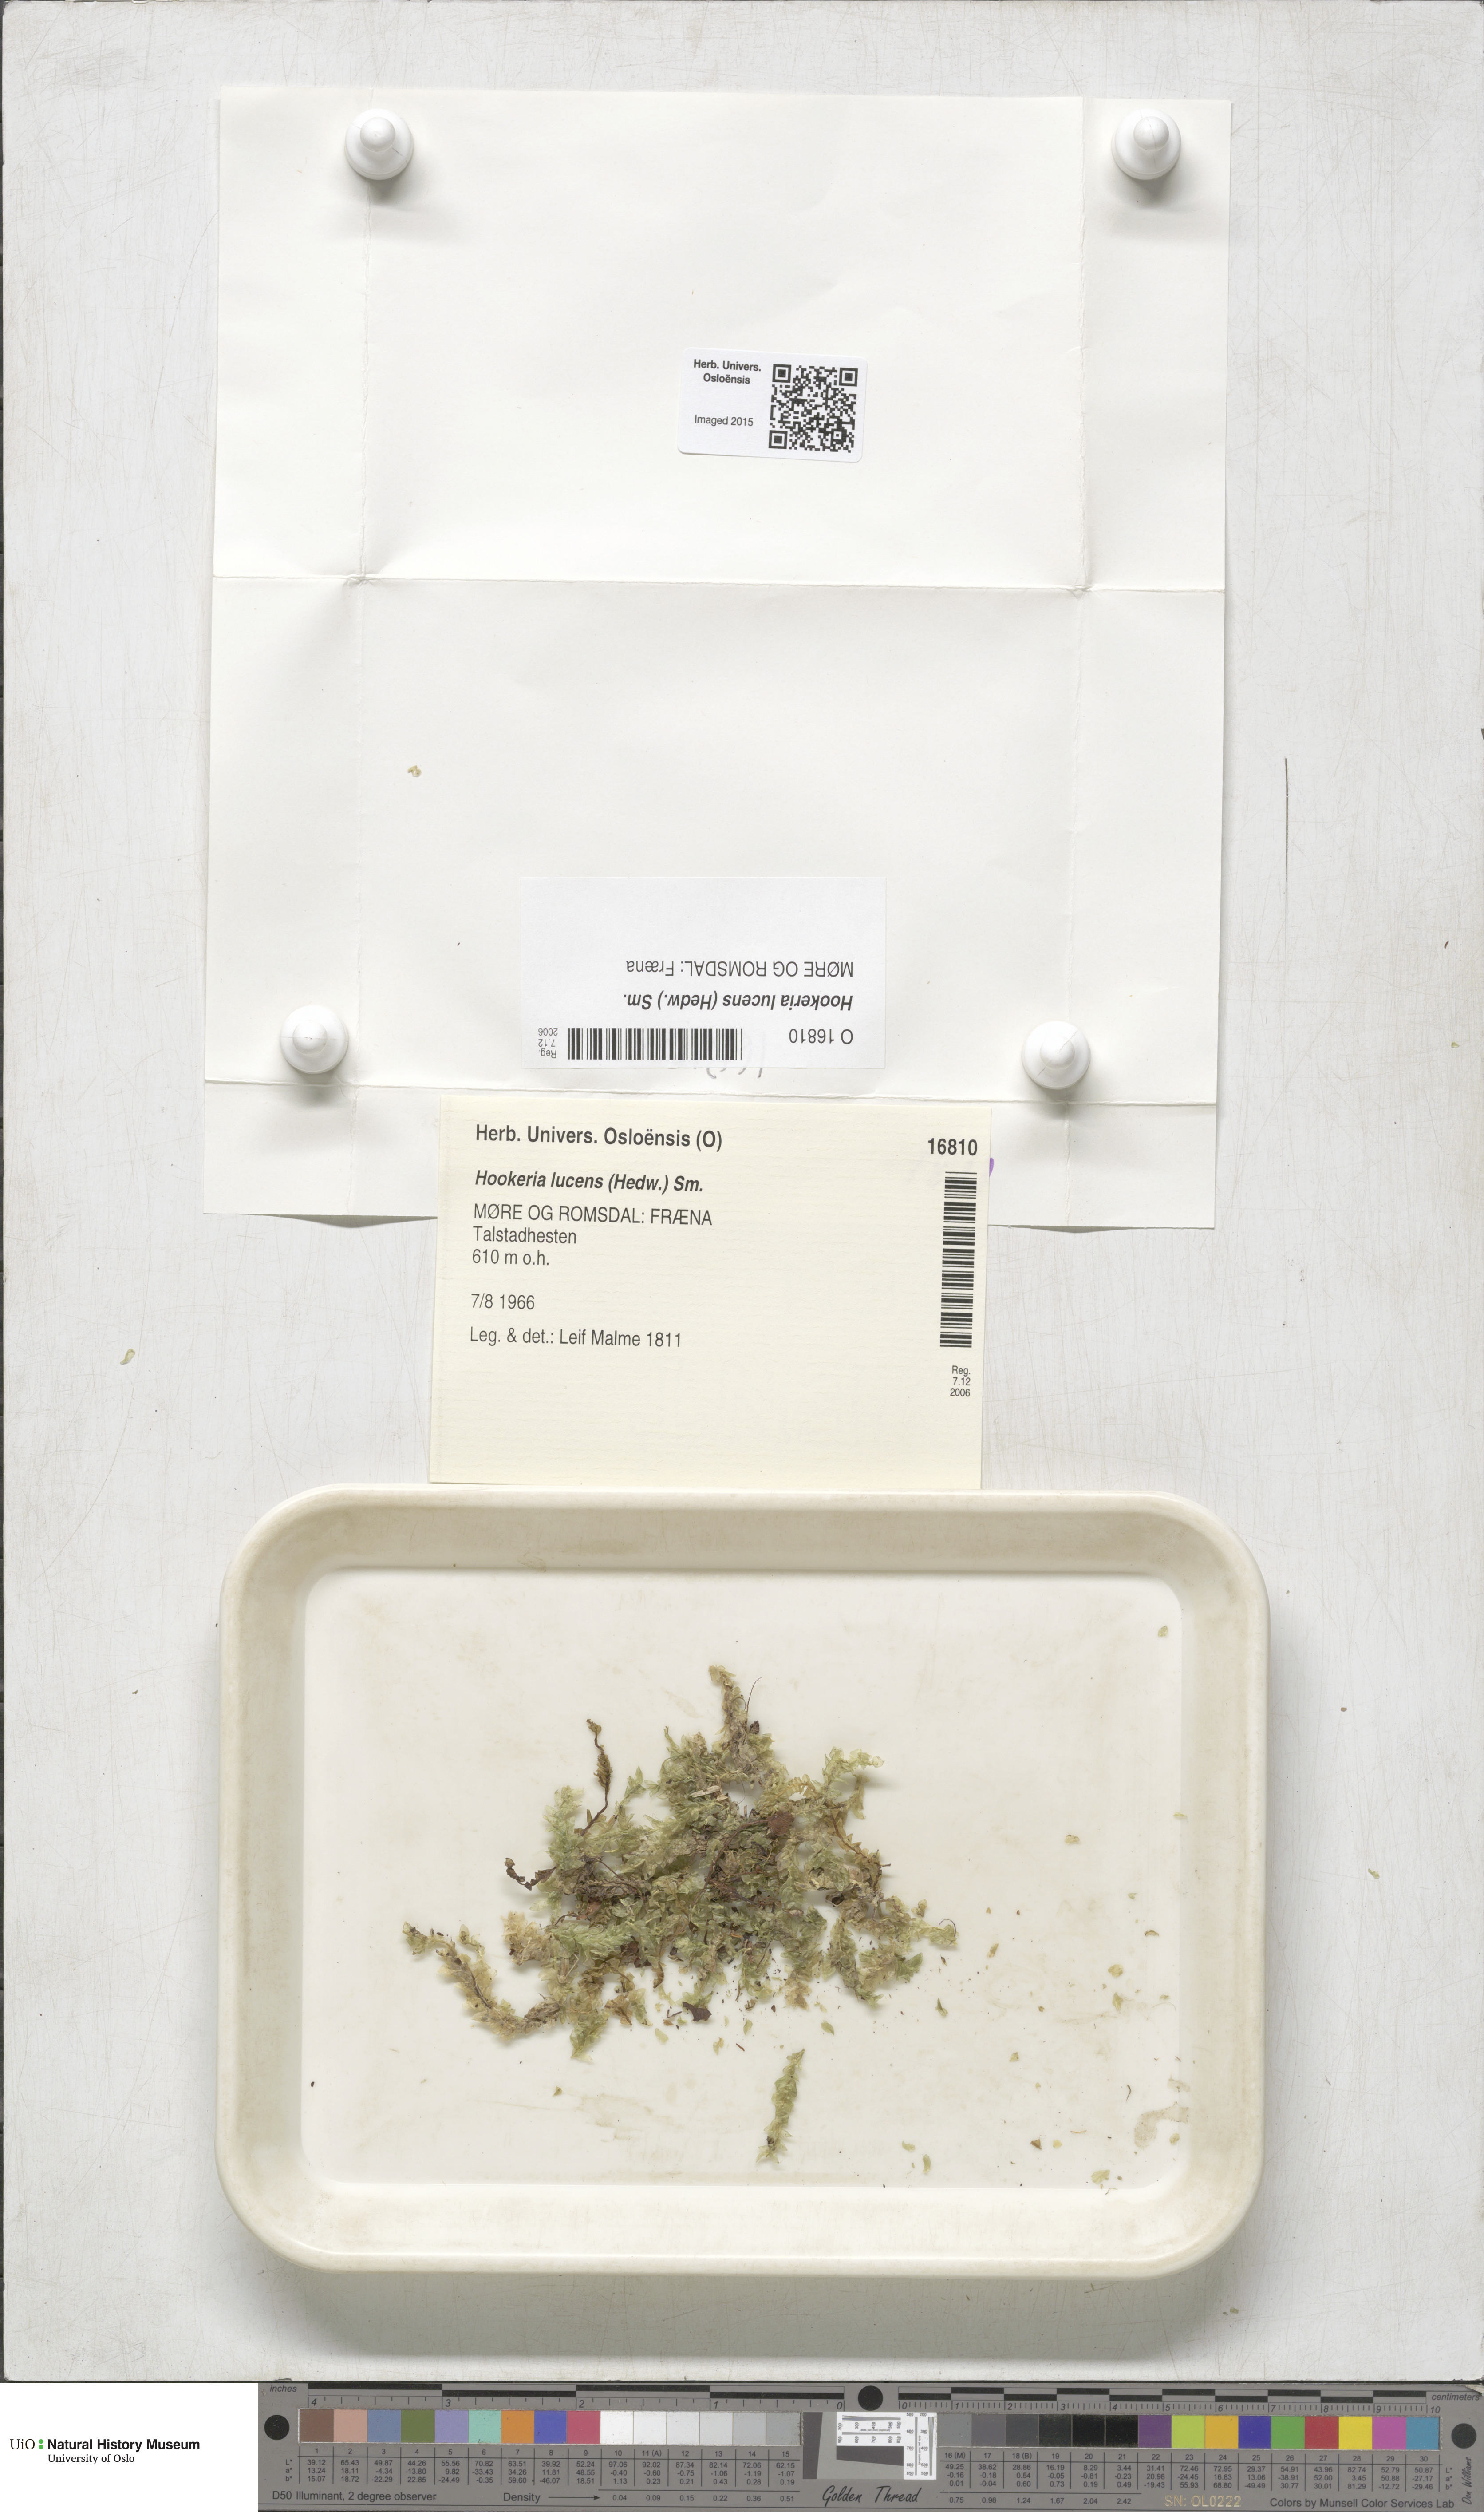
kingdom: Plantae
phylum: Bryophyta
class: Bryopsida
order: Hookeriales
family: Hookeriaceae
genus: Hookeria
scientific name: Hookeria lucens
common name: Shining hookeria
